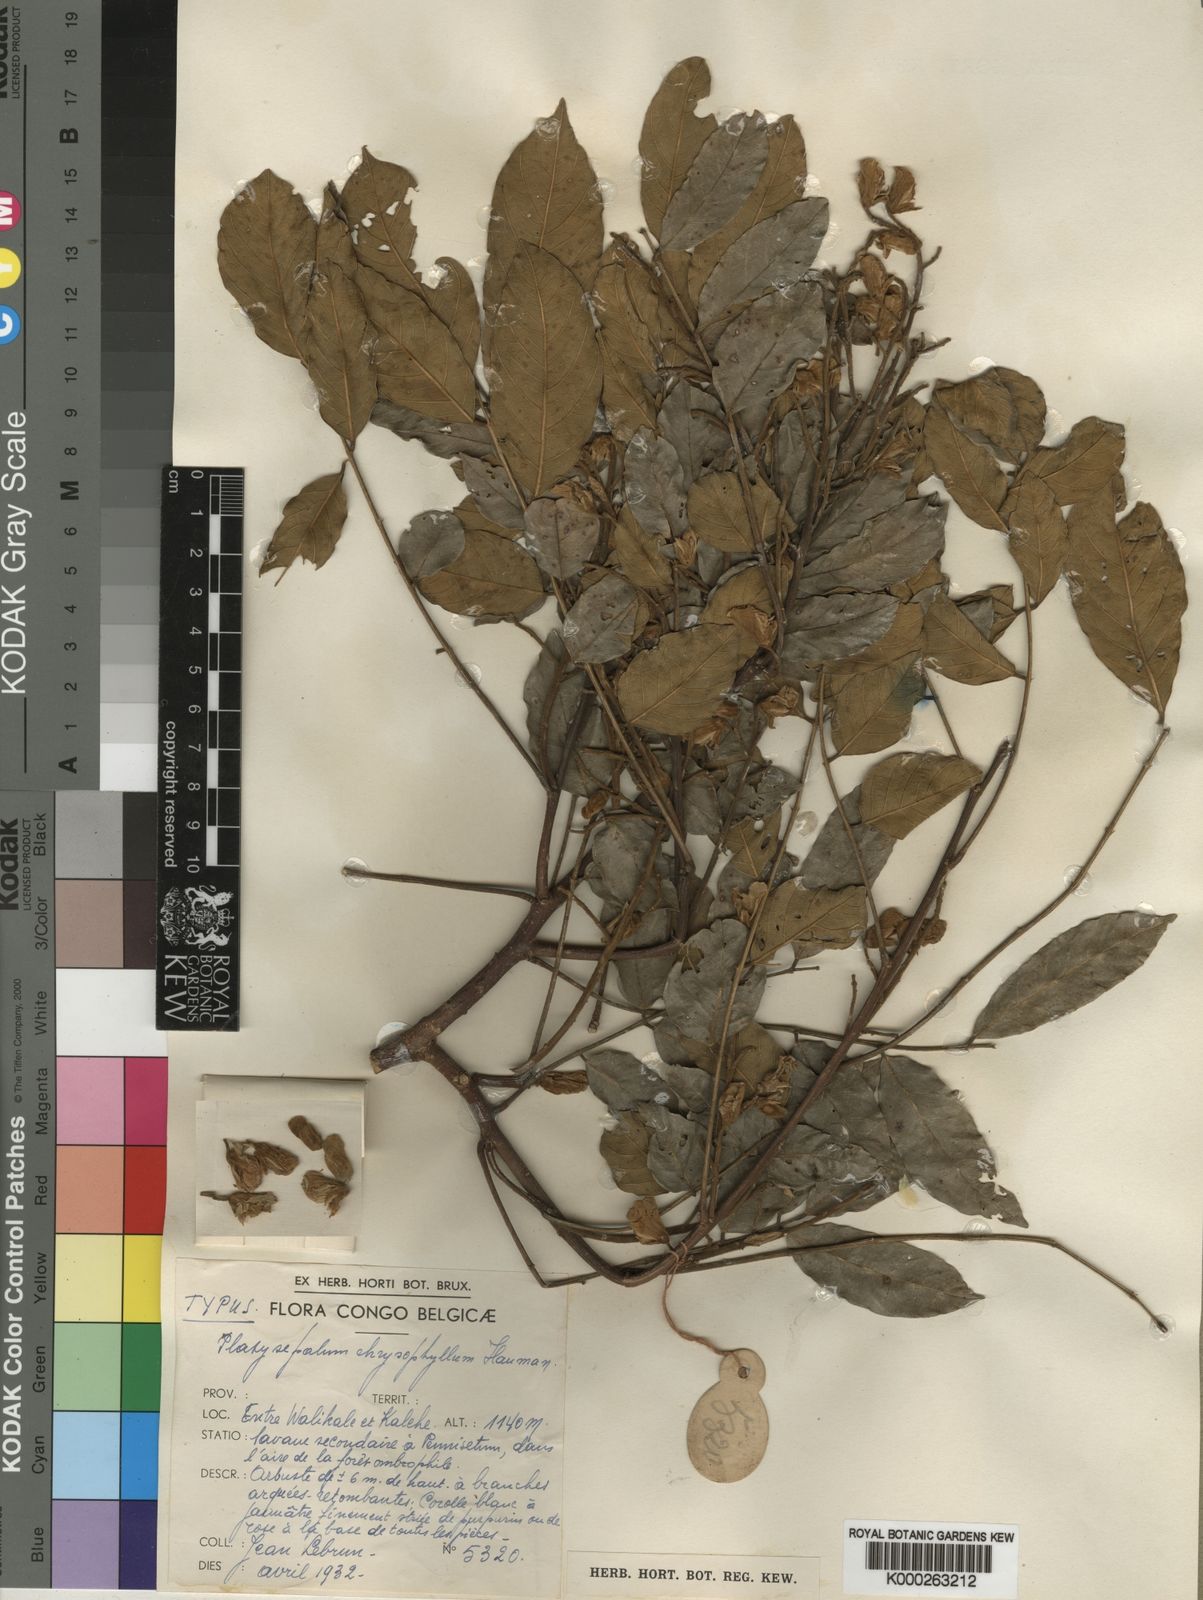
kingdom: Plantae
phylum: Tracheophyta
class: Magnoliopsida
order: Fabales
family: Fabaceae
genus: Platysepalum
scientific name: Platysepalum chrysophyllum
